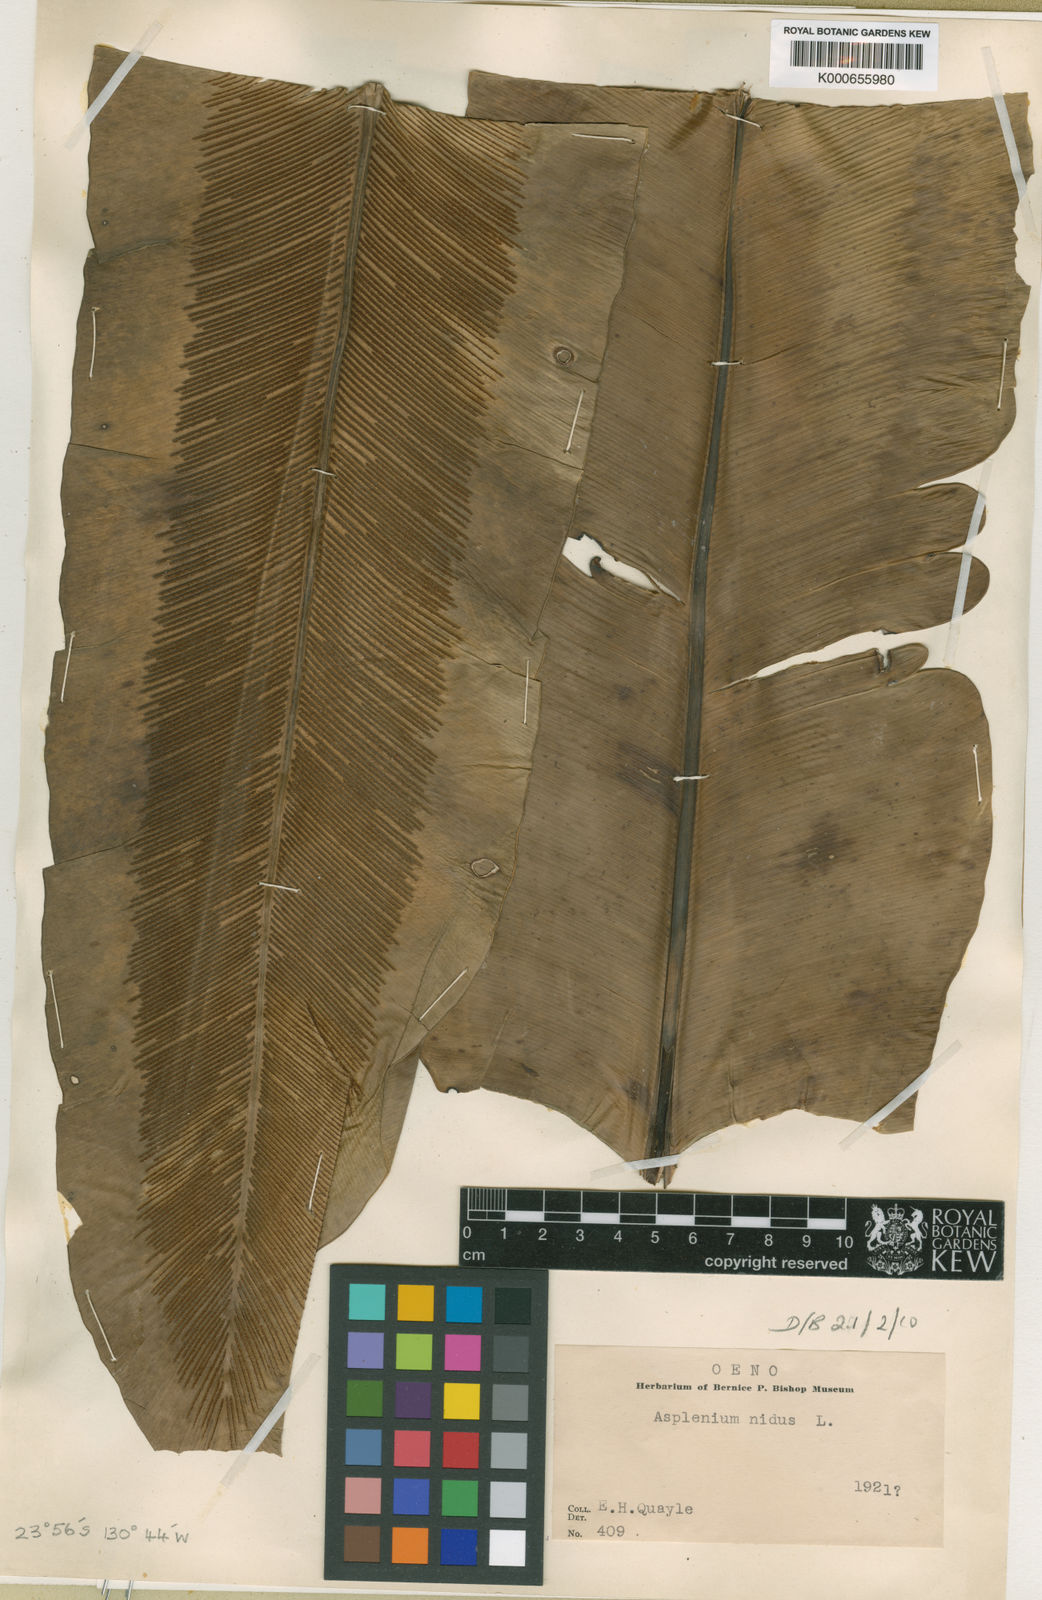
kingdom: Plantae
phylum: Tracheophyta
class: Polypodiopsida
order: Polypodiales
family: Aspleniaceae
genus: Asplenium
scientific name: Asplenium australasicum
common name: Bird's-nest fern
